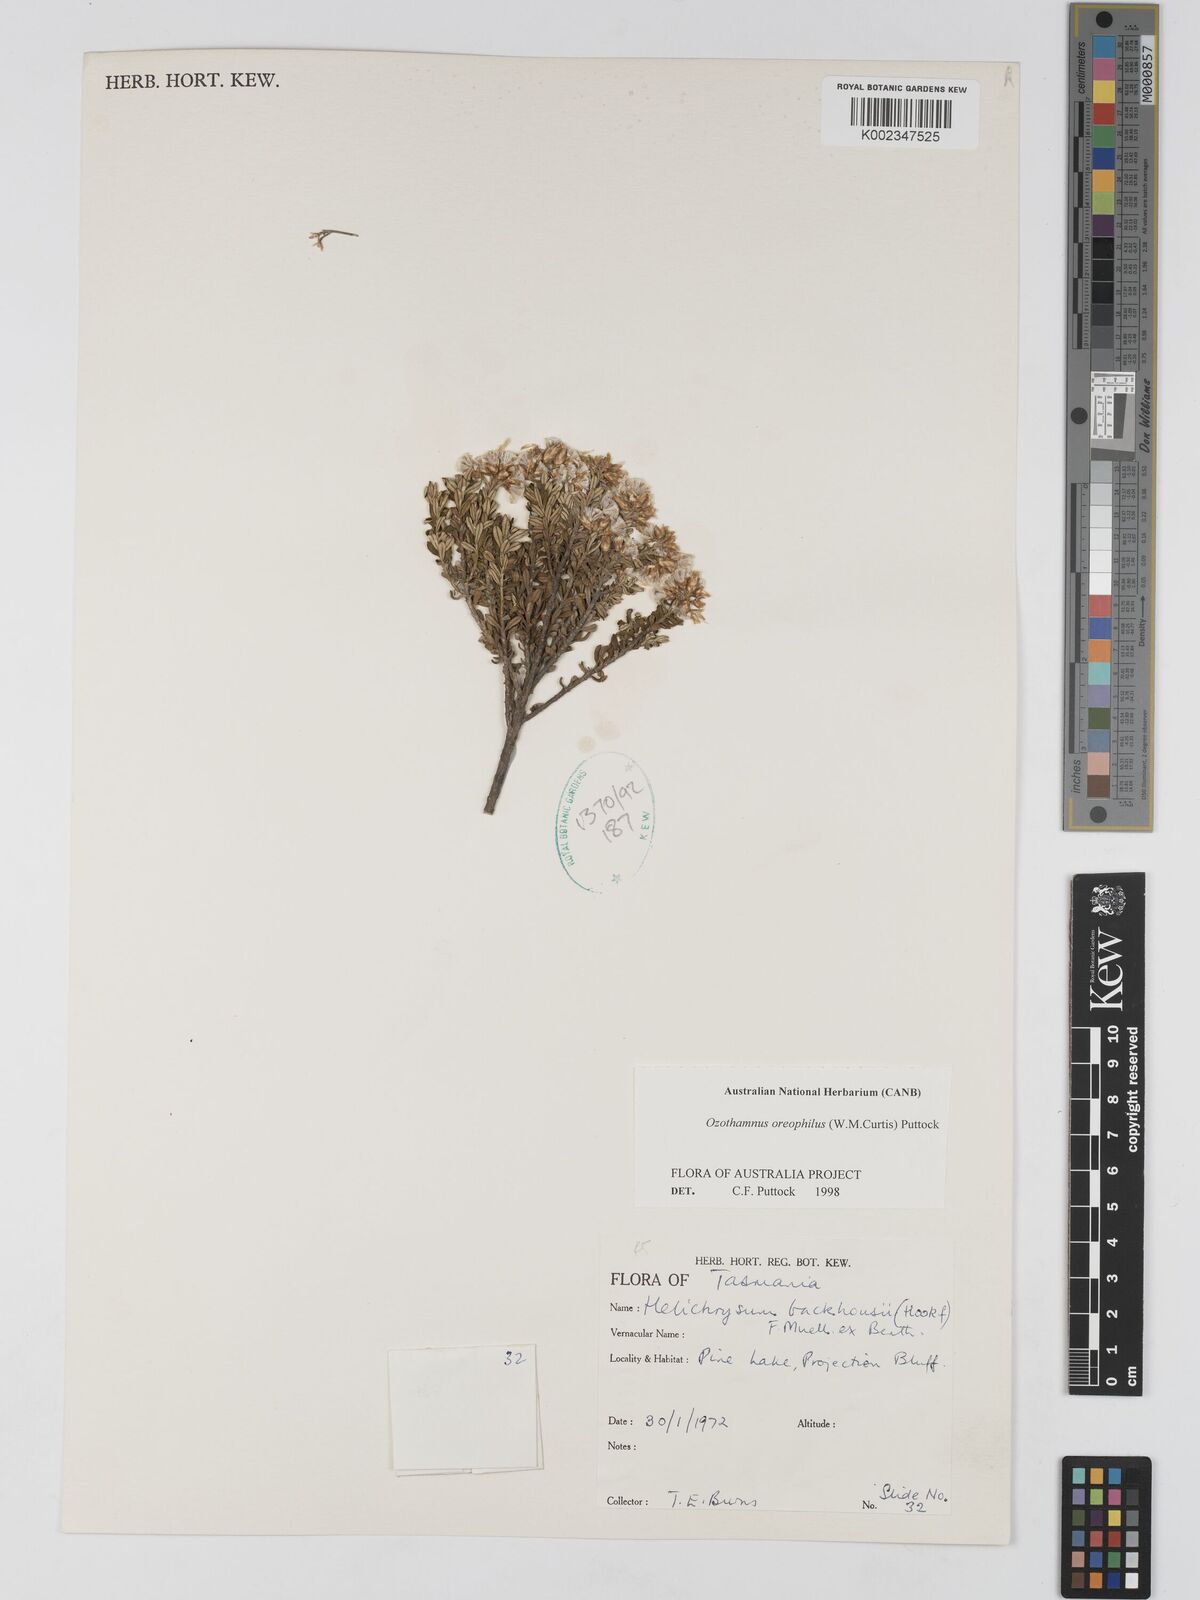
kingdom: Plantae
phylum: Tracheophyta
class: Magnoliopsida
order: Asterales
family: Asteraceae
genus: Ozothamnus
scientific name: Ozothamnus
